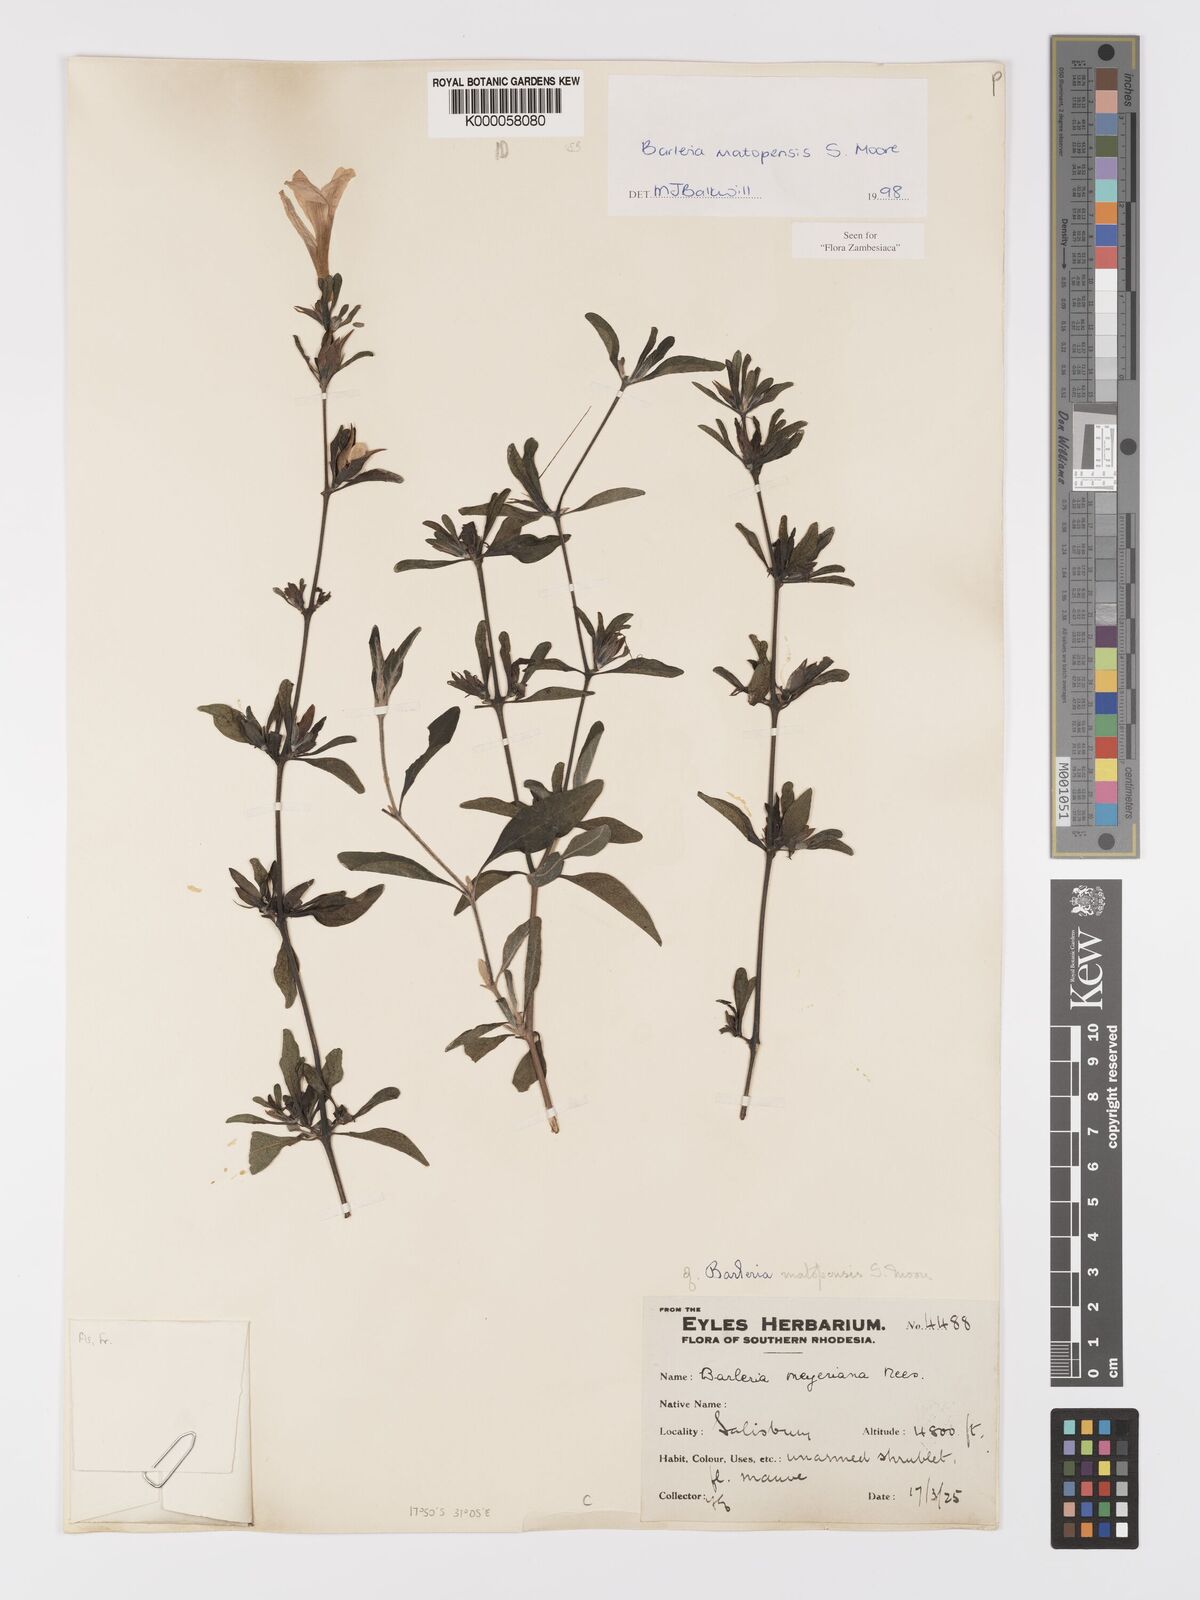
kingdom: Plantae
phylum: Tracheophyta
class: Magnoliopsida
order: Lamiales
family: Acanthaceae
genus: Barleria
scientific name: Barleria matopensis
